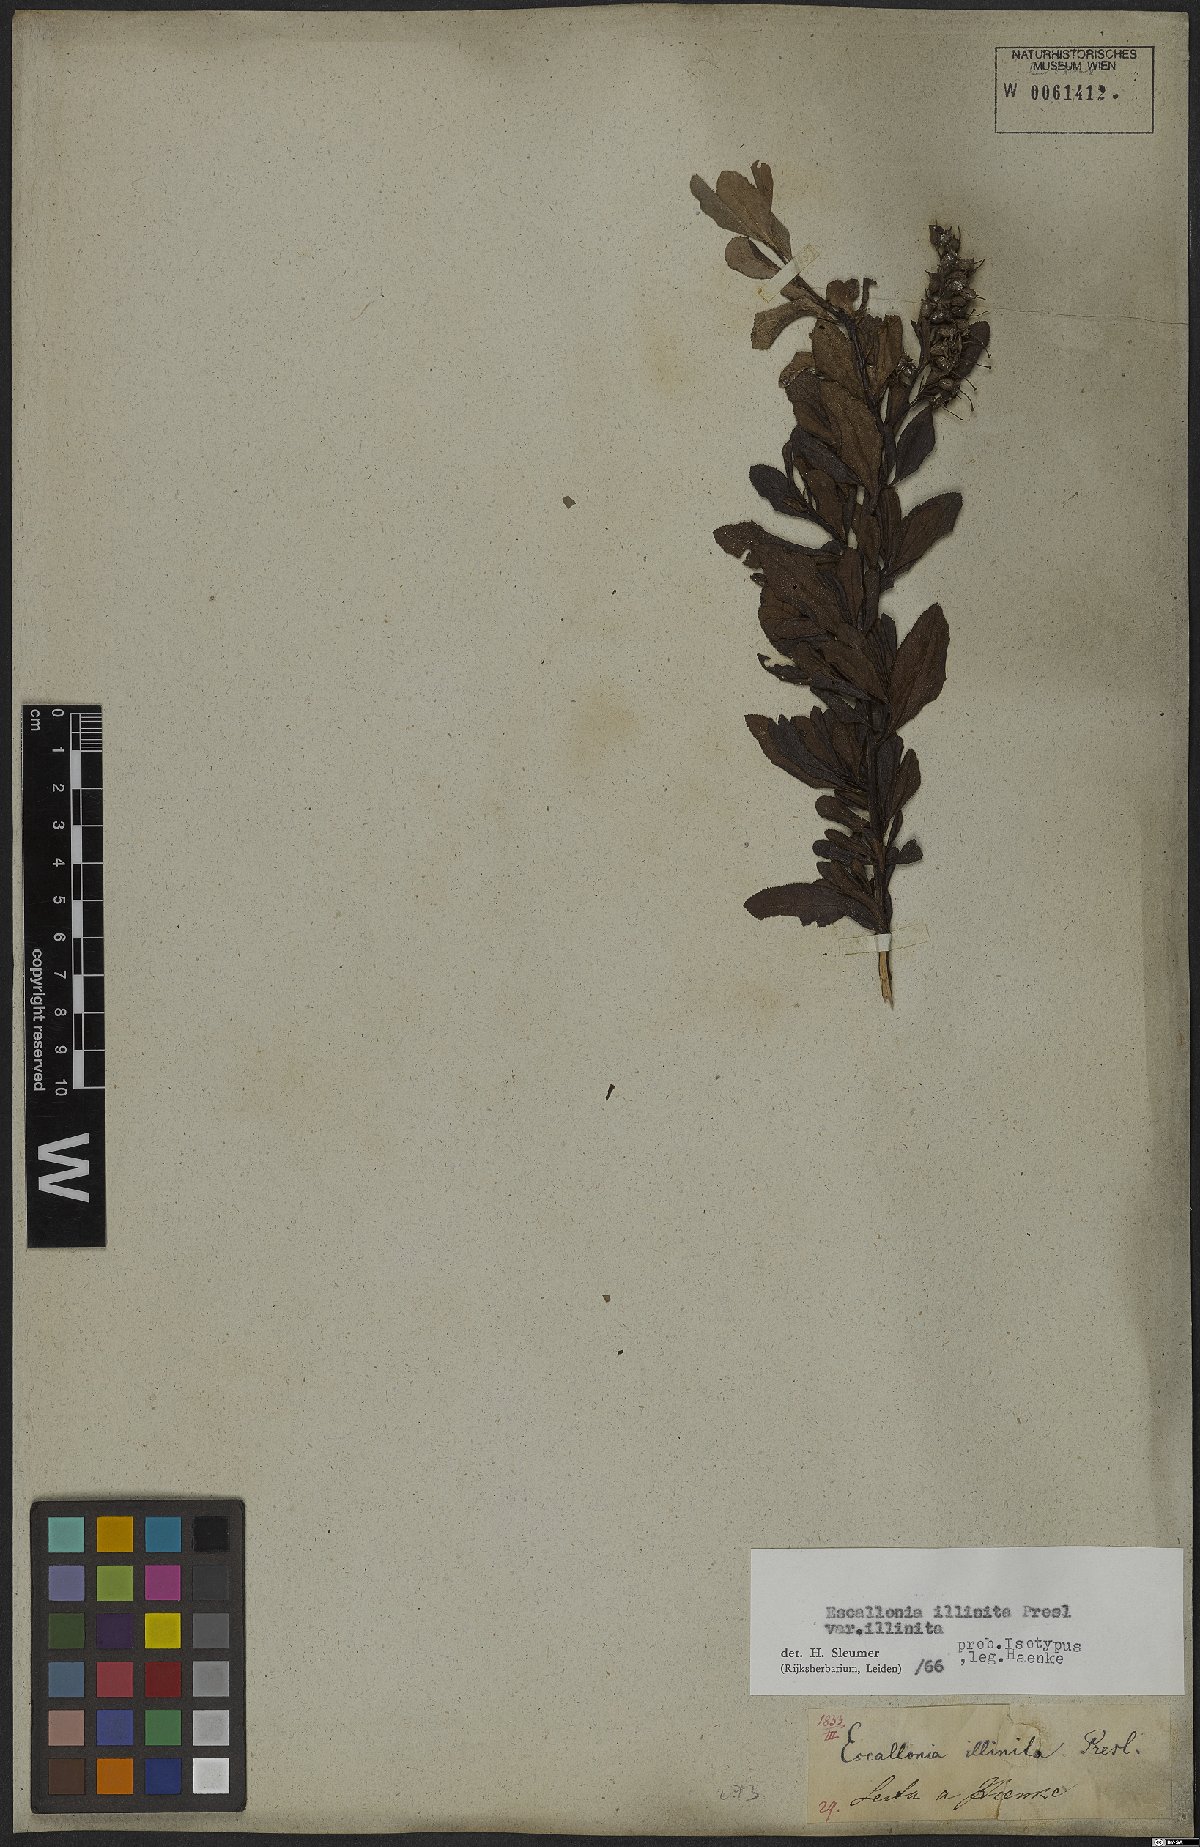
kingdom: Plantae
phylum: Tracheophyta
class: Magnoliopsida
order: Escalloniales
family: Escalloniaceae
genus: Escallonia
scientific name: Escallonia illinita
